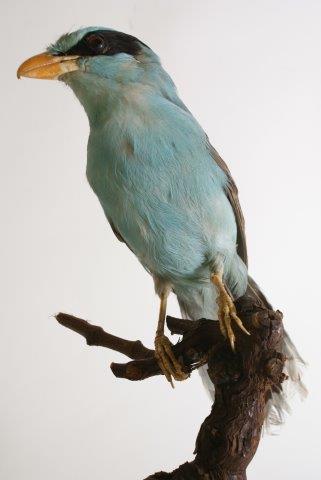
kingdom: Animalia
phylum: Chordata
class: Aves
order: Passeriformes
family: Corvidae
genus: Cissa
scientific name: Cissa chinensis
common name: Common green magpie
